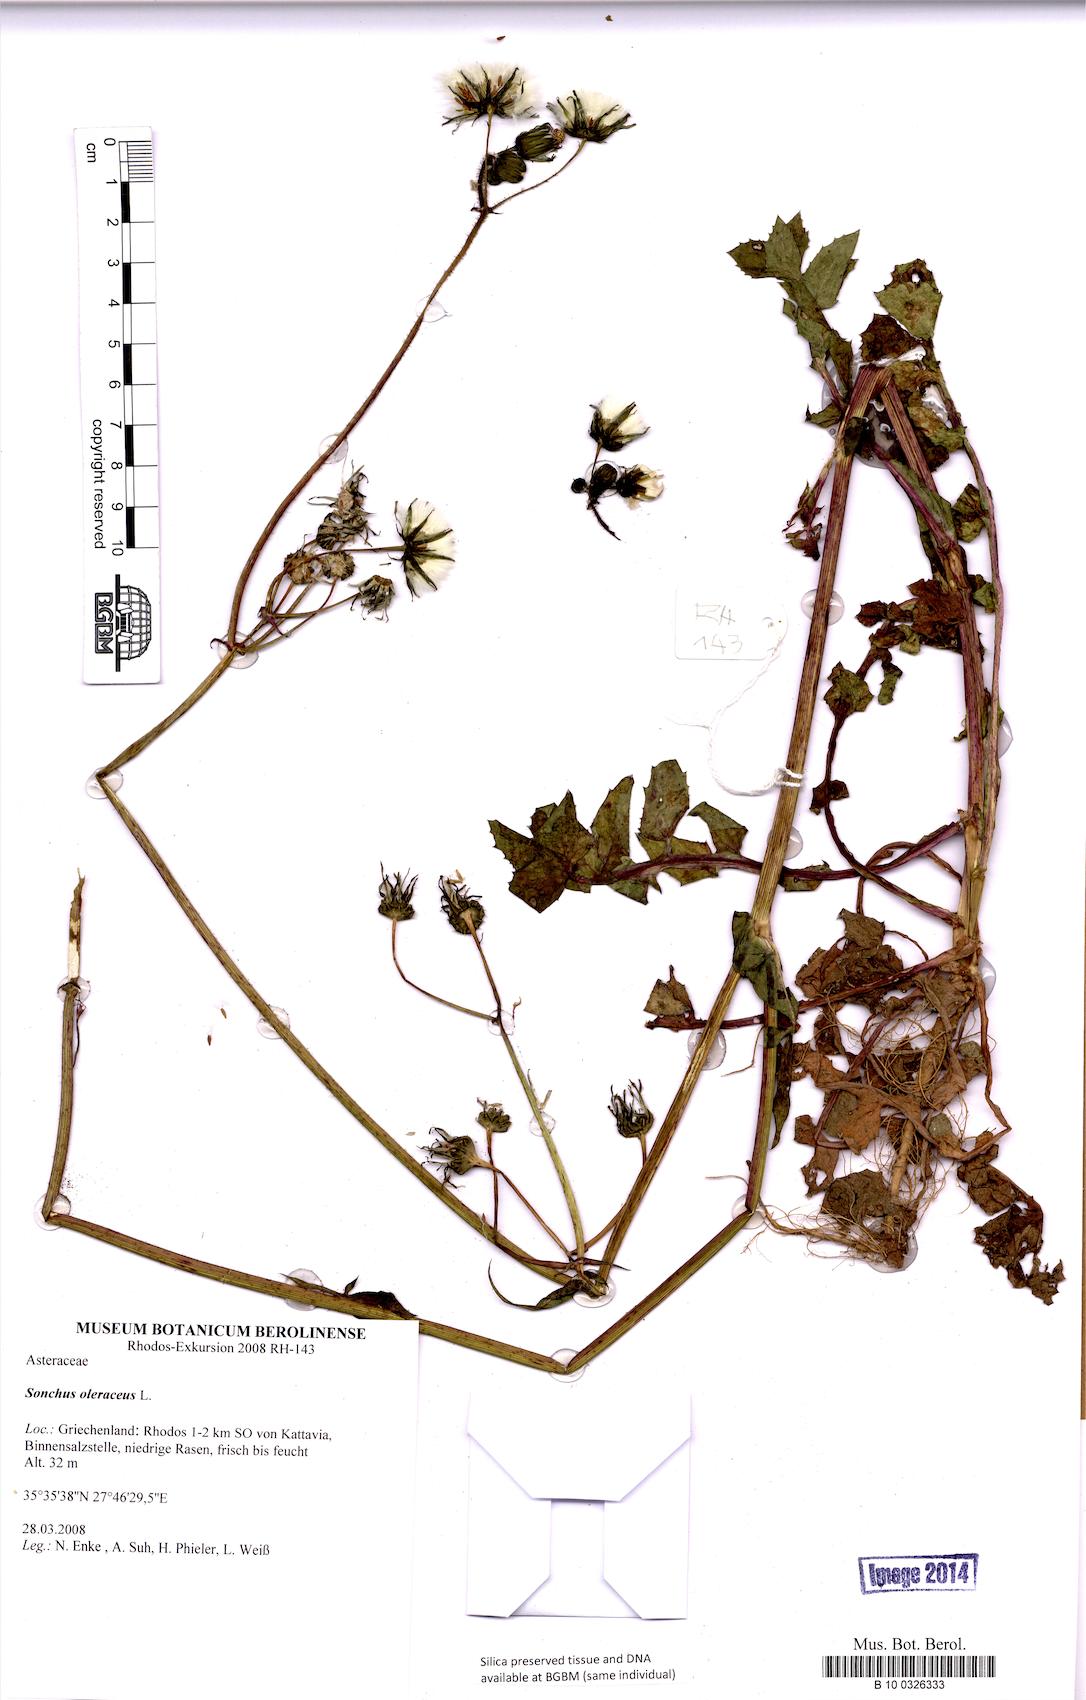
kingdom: Plantae
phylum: Tracheophyta
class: Magnoliopsida
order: Asterales
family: Asteraceae
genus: Sonchus
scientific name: Sonchus oleraceus
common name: Common sowthistle
